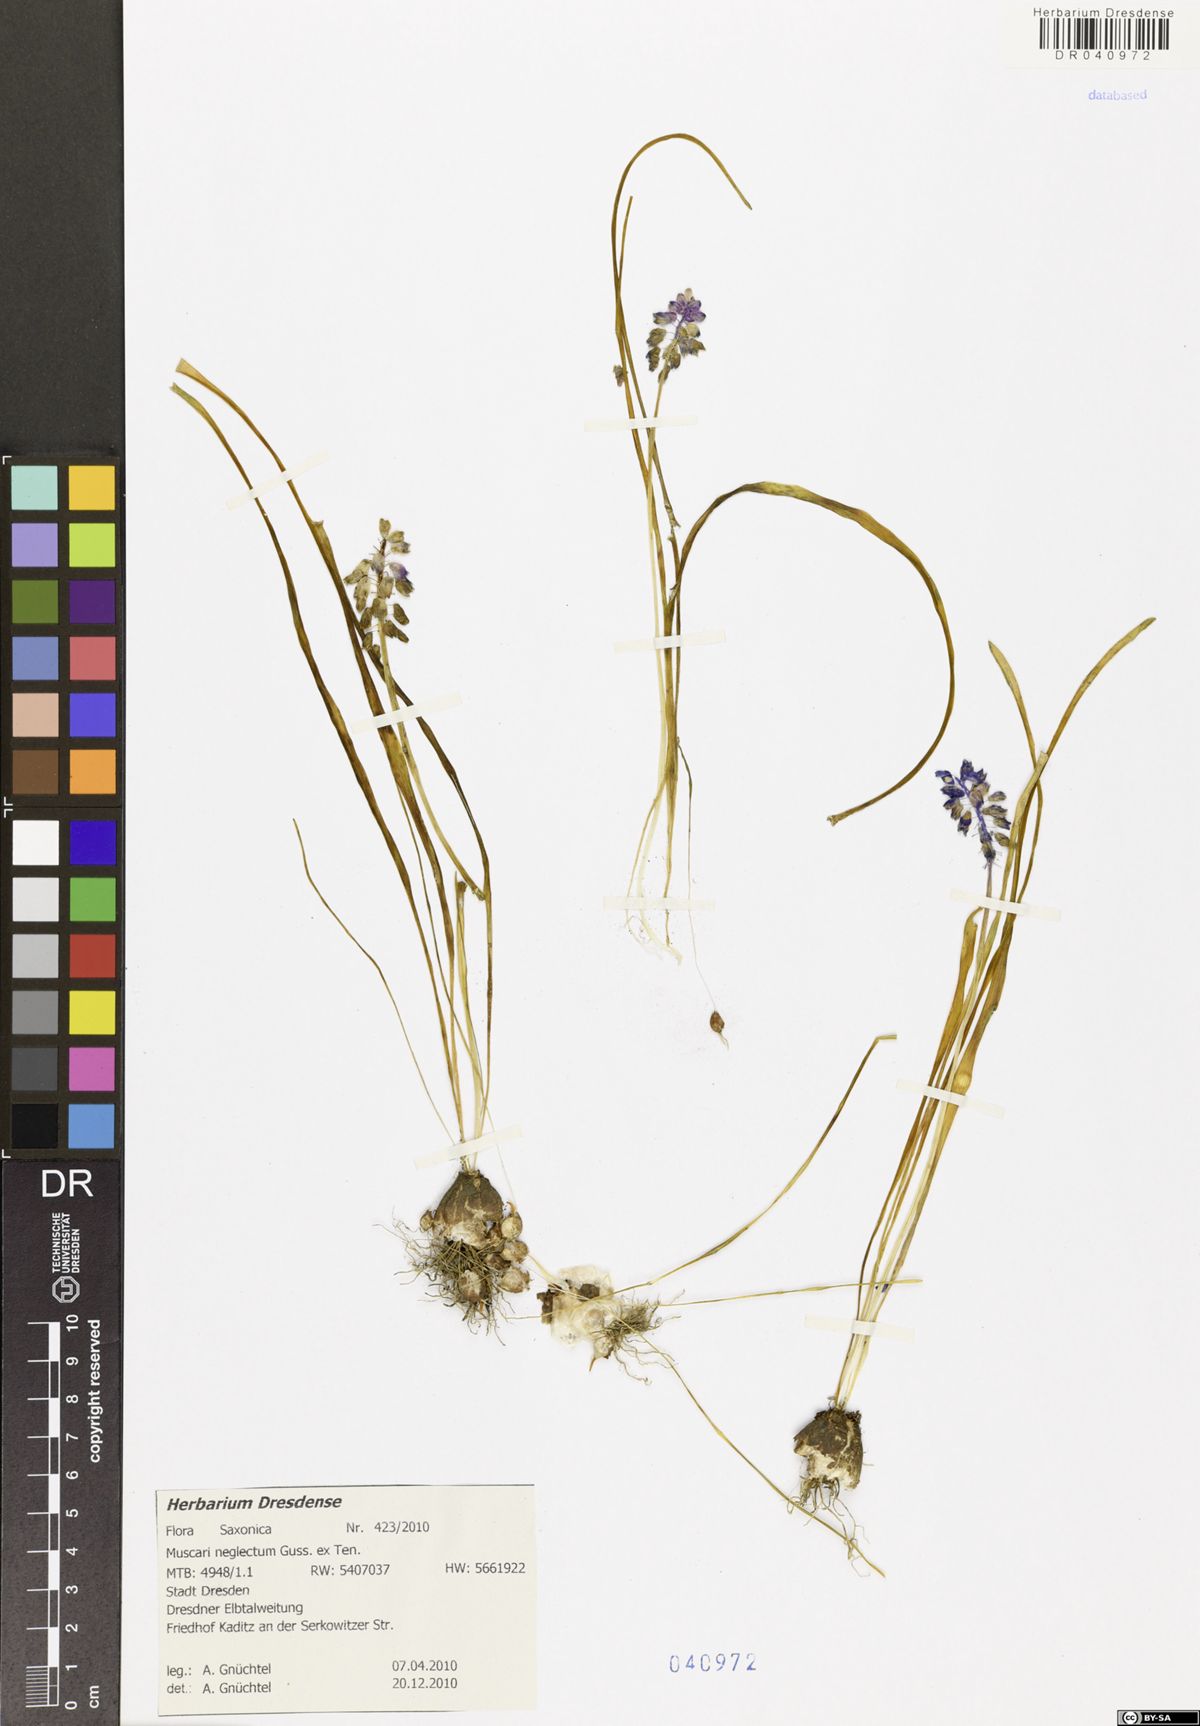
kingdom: Plantae
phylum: Tracheophyta
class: Liliopsida
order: Asparagales
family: Asparagaceae
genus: Muscari
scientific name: Muscari neglectum
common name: Grape-hyacinth
